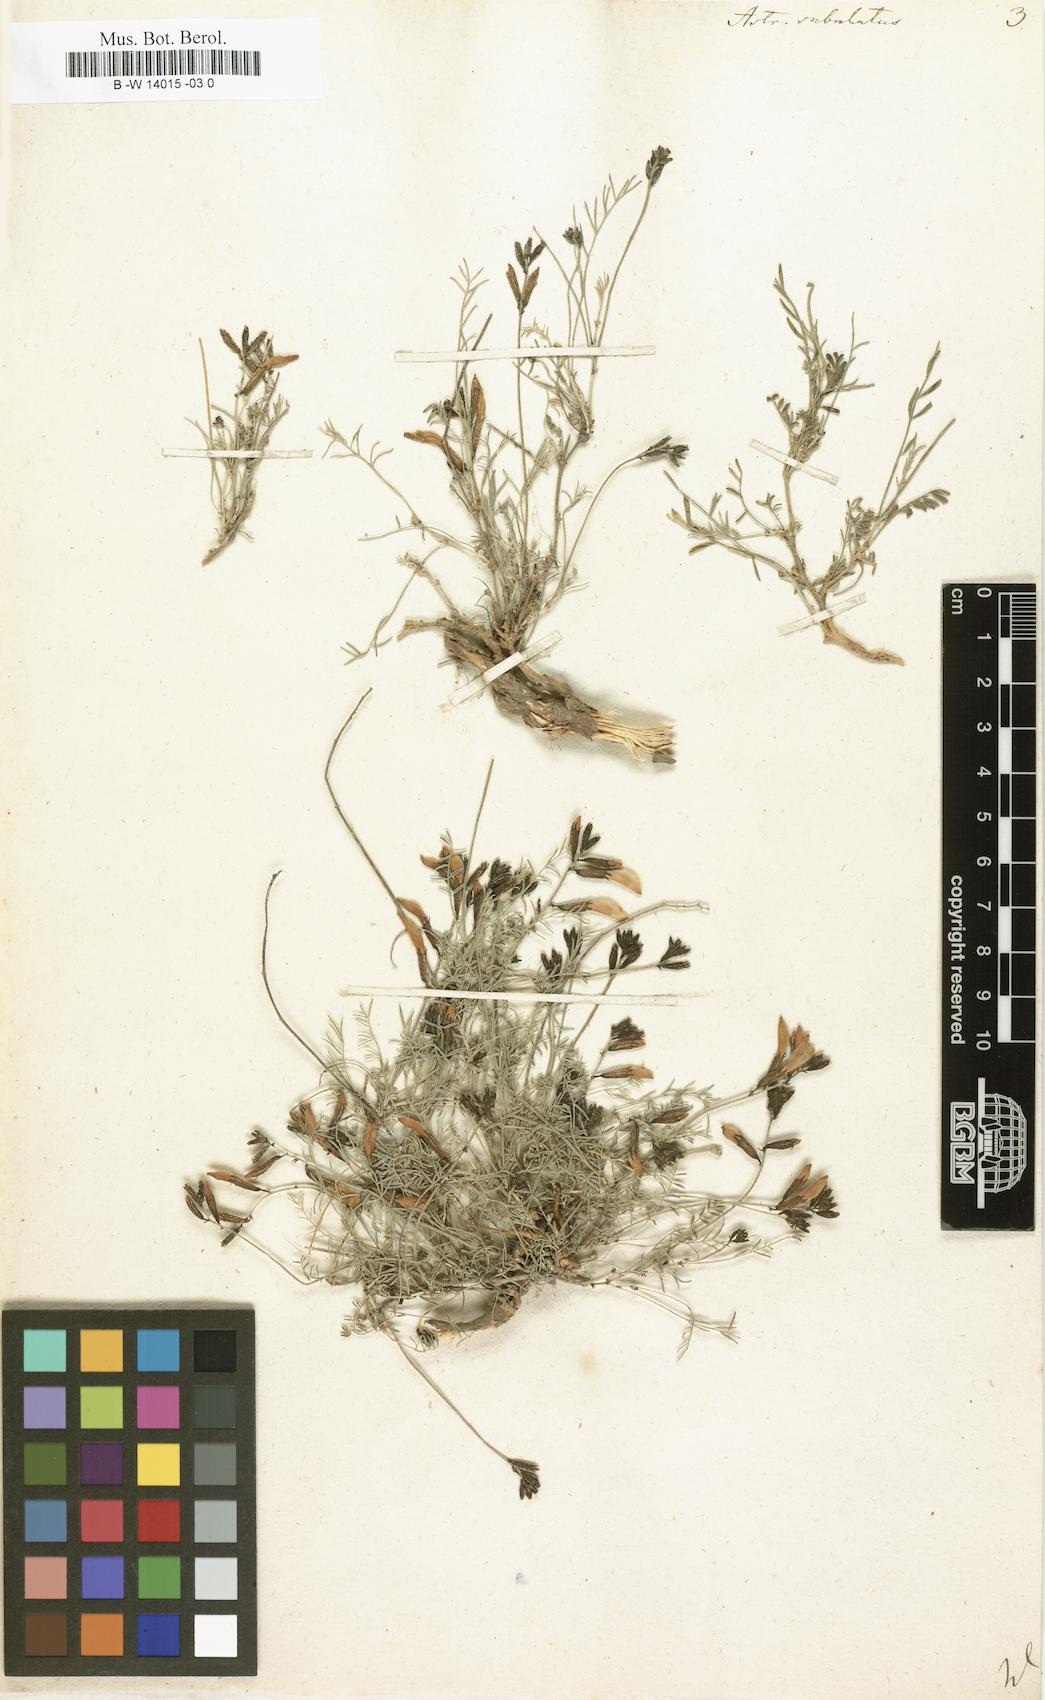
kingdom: Plantae
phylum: Tracheophyta
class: Magnoliopsida
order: Fabales
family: Fabaceae
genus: Astragalus
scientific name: Astragalus subuliformis
